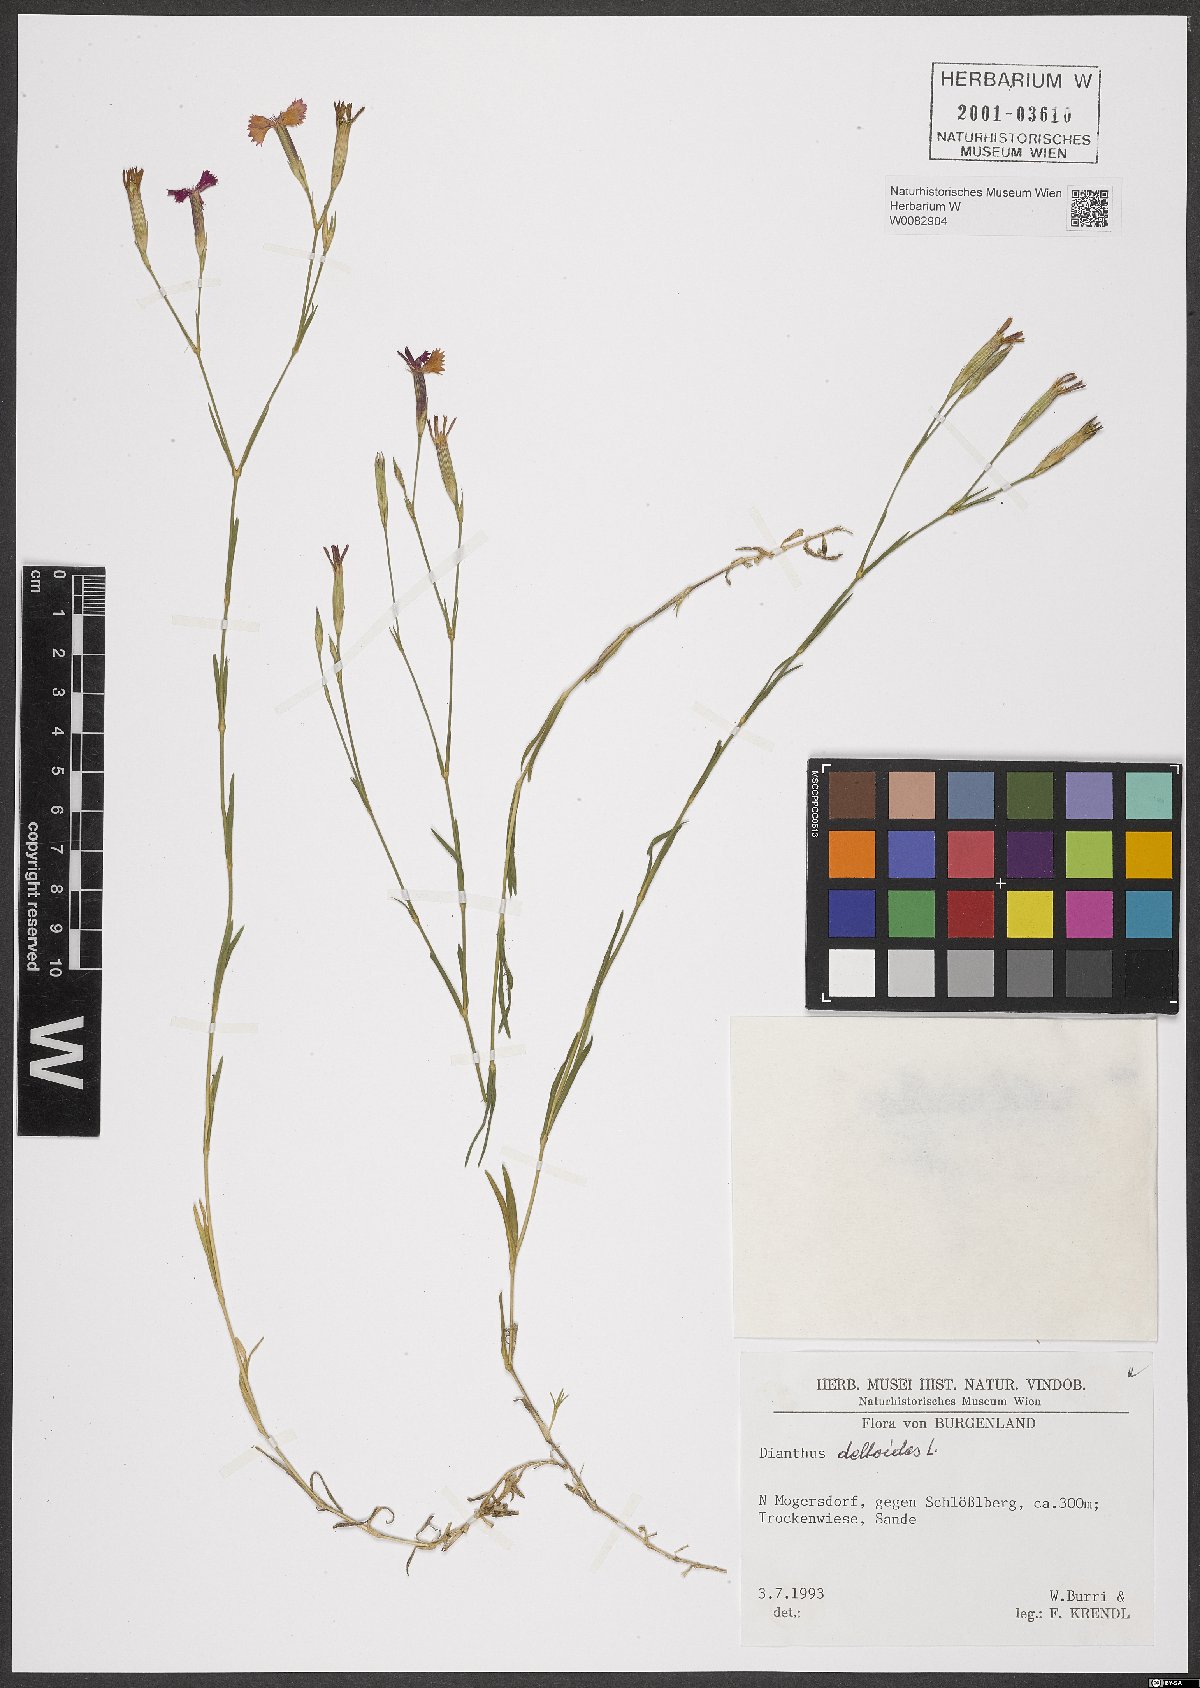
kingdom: Plantae
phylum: Tracheophyta
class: Magnoliopsida
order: Caryophyllales
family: Caryophyllaceae
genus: Dianthus
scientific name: Dianthus deltoides
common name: Maiden pink
